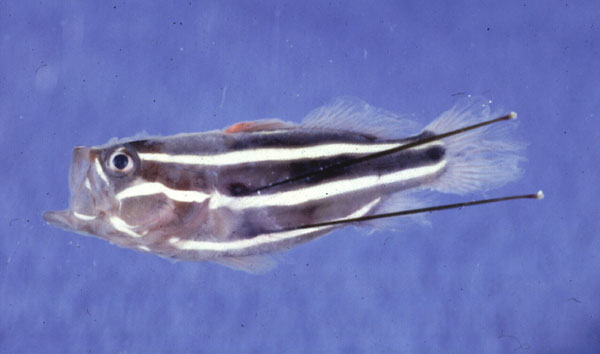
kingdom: Animalia
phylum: Chordata
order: Perciformes
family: Serranidae
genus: Grammistes
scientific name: Grammistes sexlineatus
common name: Sixline soapfish
